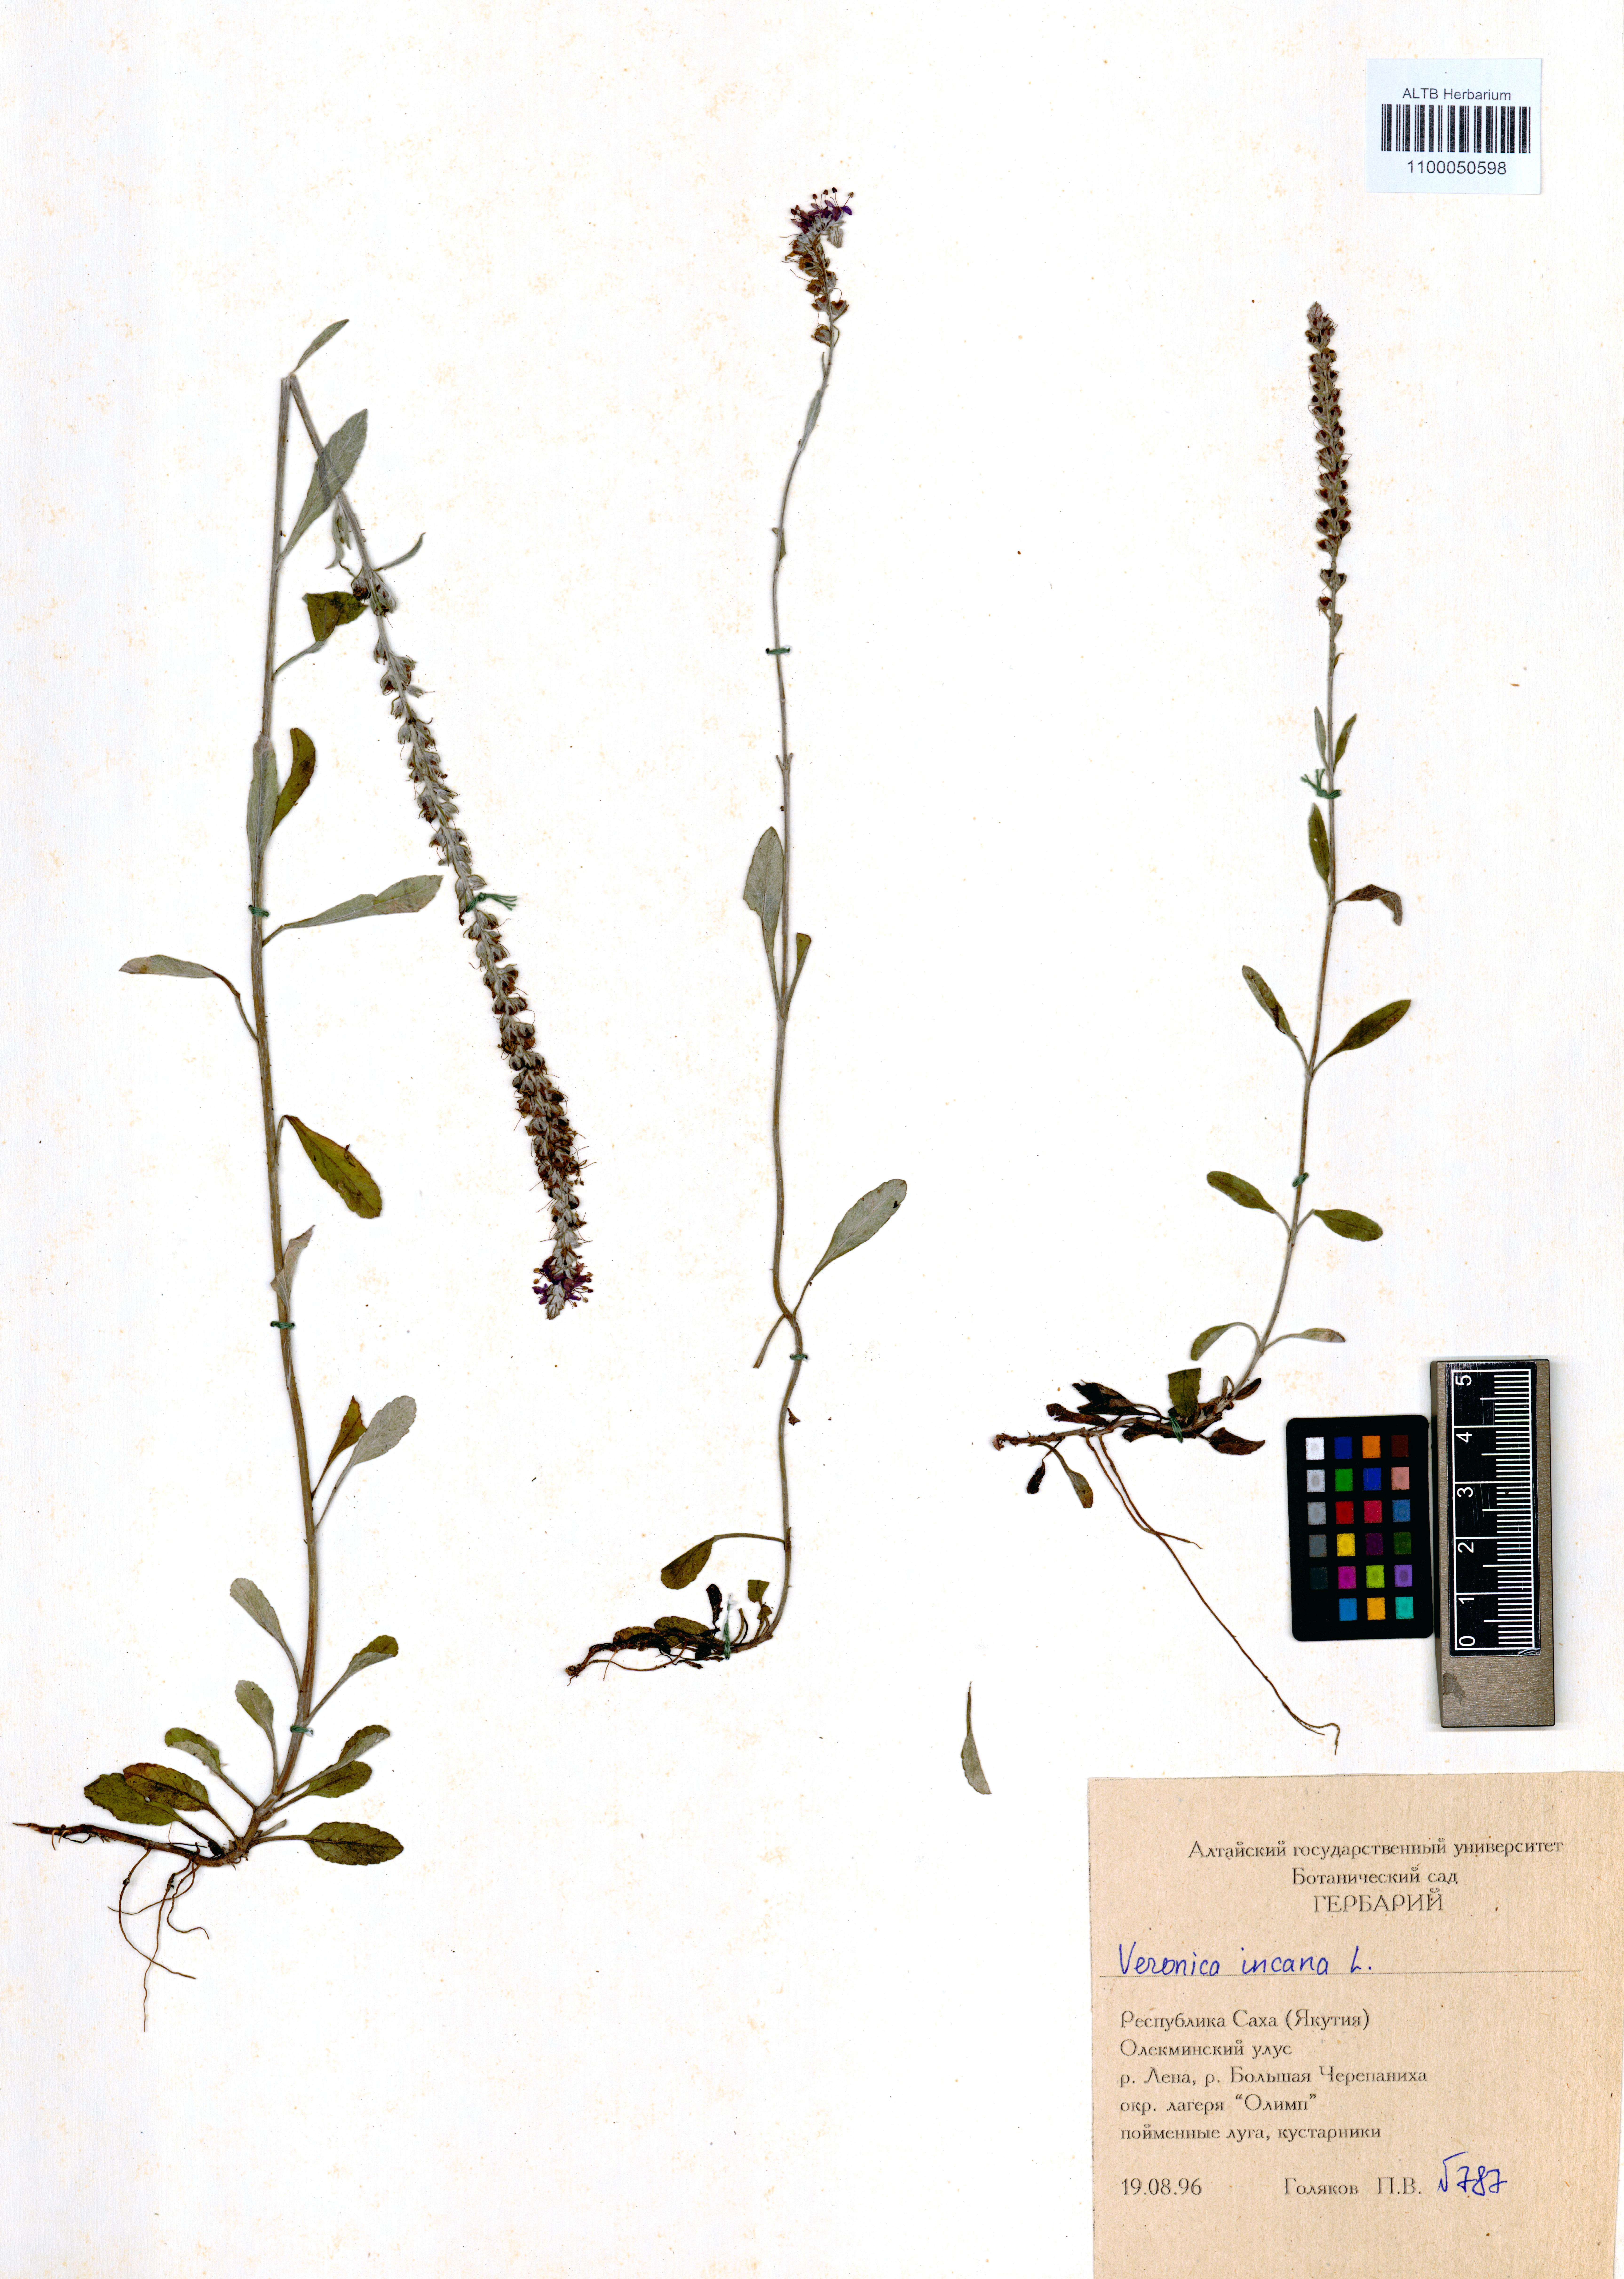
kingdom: Plantae
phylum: Tracheophyta
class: Magnoliopsida
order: Lamiales
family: Plantaginaceae
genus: Veronica
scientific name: Veronica incana
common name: Silver speedwell
